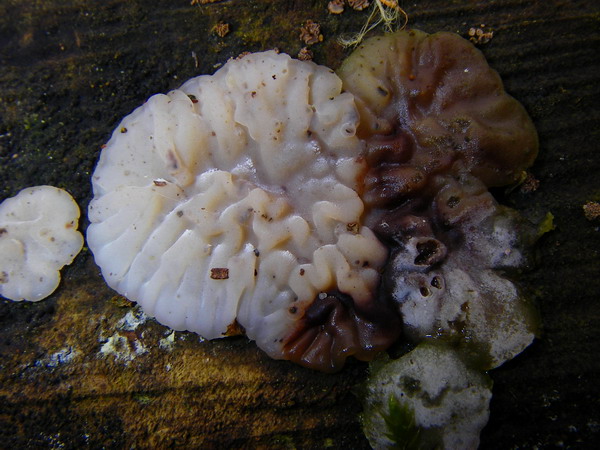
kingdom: Fungi
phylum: Basidiomycota
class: Agaricomycetes
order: Auriculariales
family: Auriculariaceae
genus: Exidia
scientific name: Exidia thuretiana
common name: hvidlig bævretop
